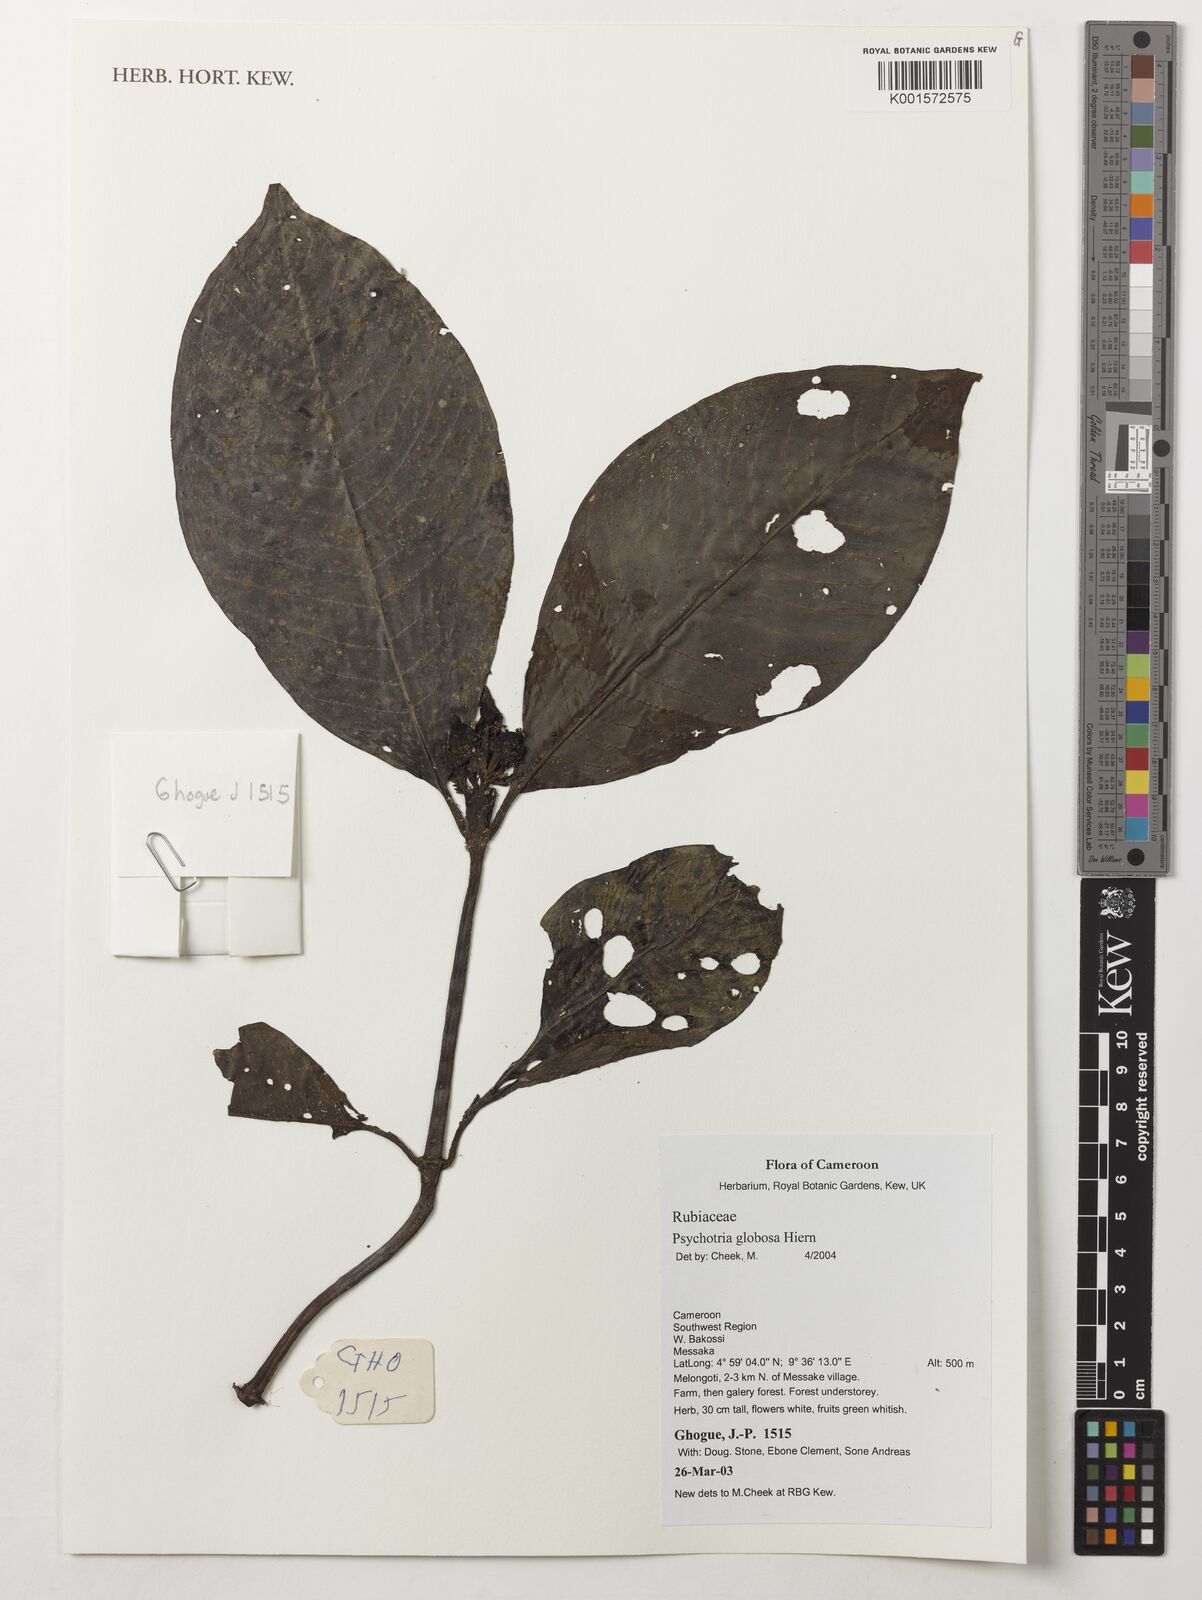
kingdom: Plantae
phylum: Tracheophyta
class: Magnoliopsida
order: Gentianales
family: Rubiaceae
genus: Psychotria
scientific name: Psychotria globosa
